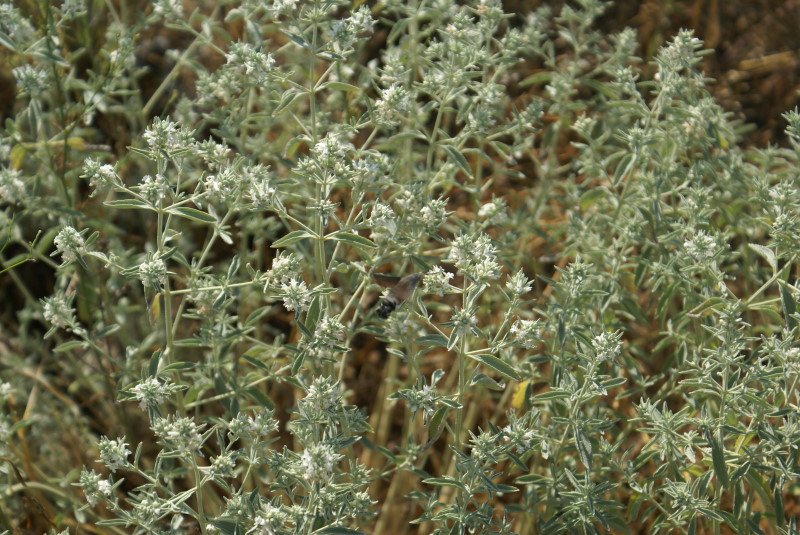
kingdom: Plantae
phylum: Tracheophyta
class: Magnoliopsida
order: Lamiales
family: Lamiaceae
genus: Marrubium
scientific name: Marrubium peregrinum
